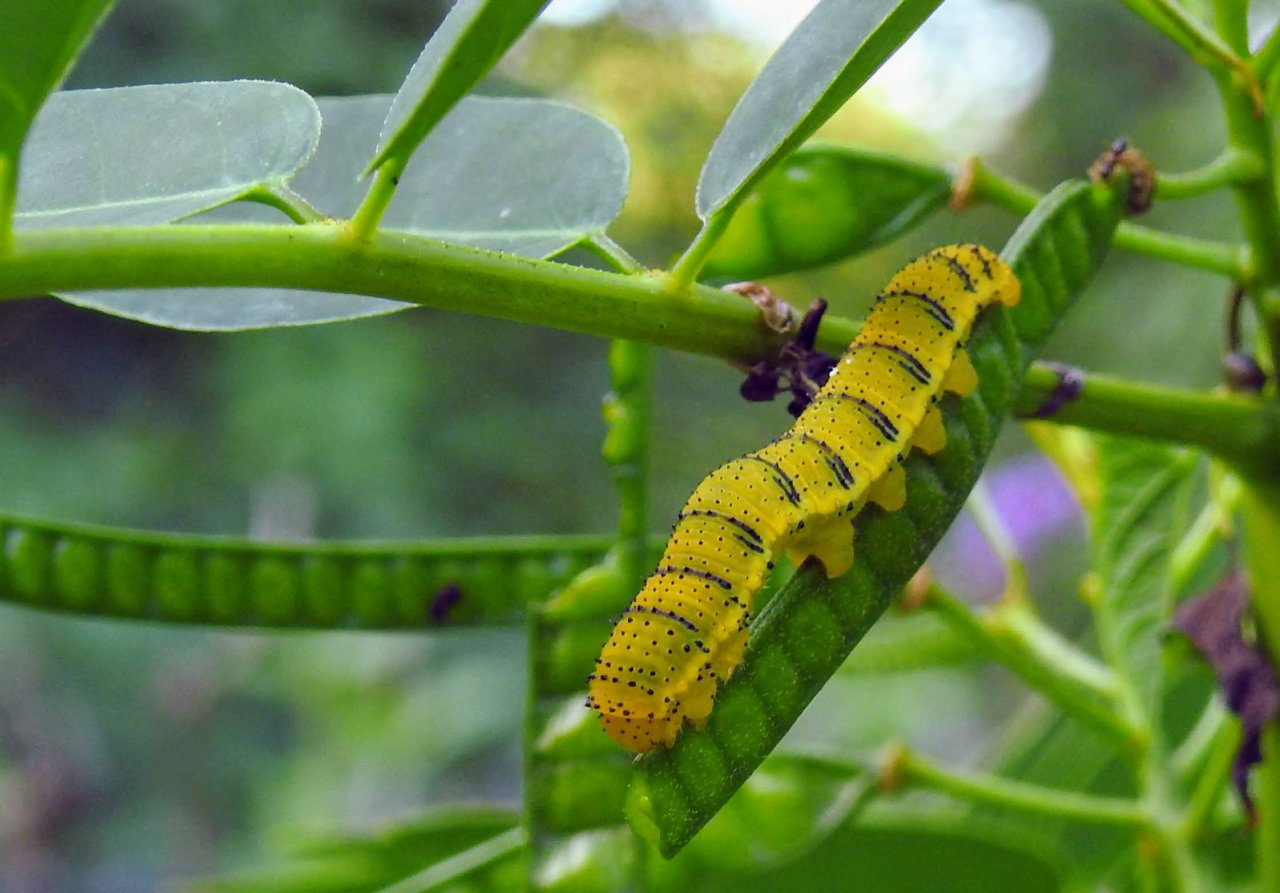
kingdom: Animalia
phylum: Arthropoda
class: Insecta
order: Lepidoptera
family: Pieridae
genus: Phoebis
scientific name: Phoebis sennae
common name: Cloudless Sulphur
